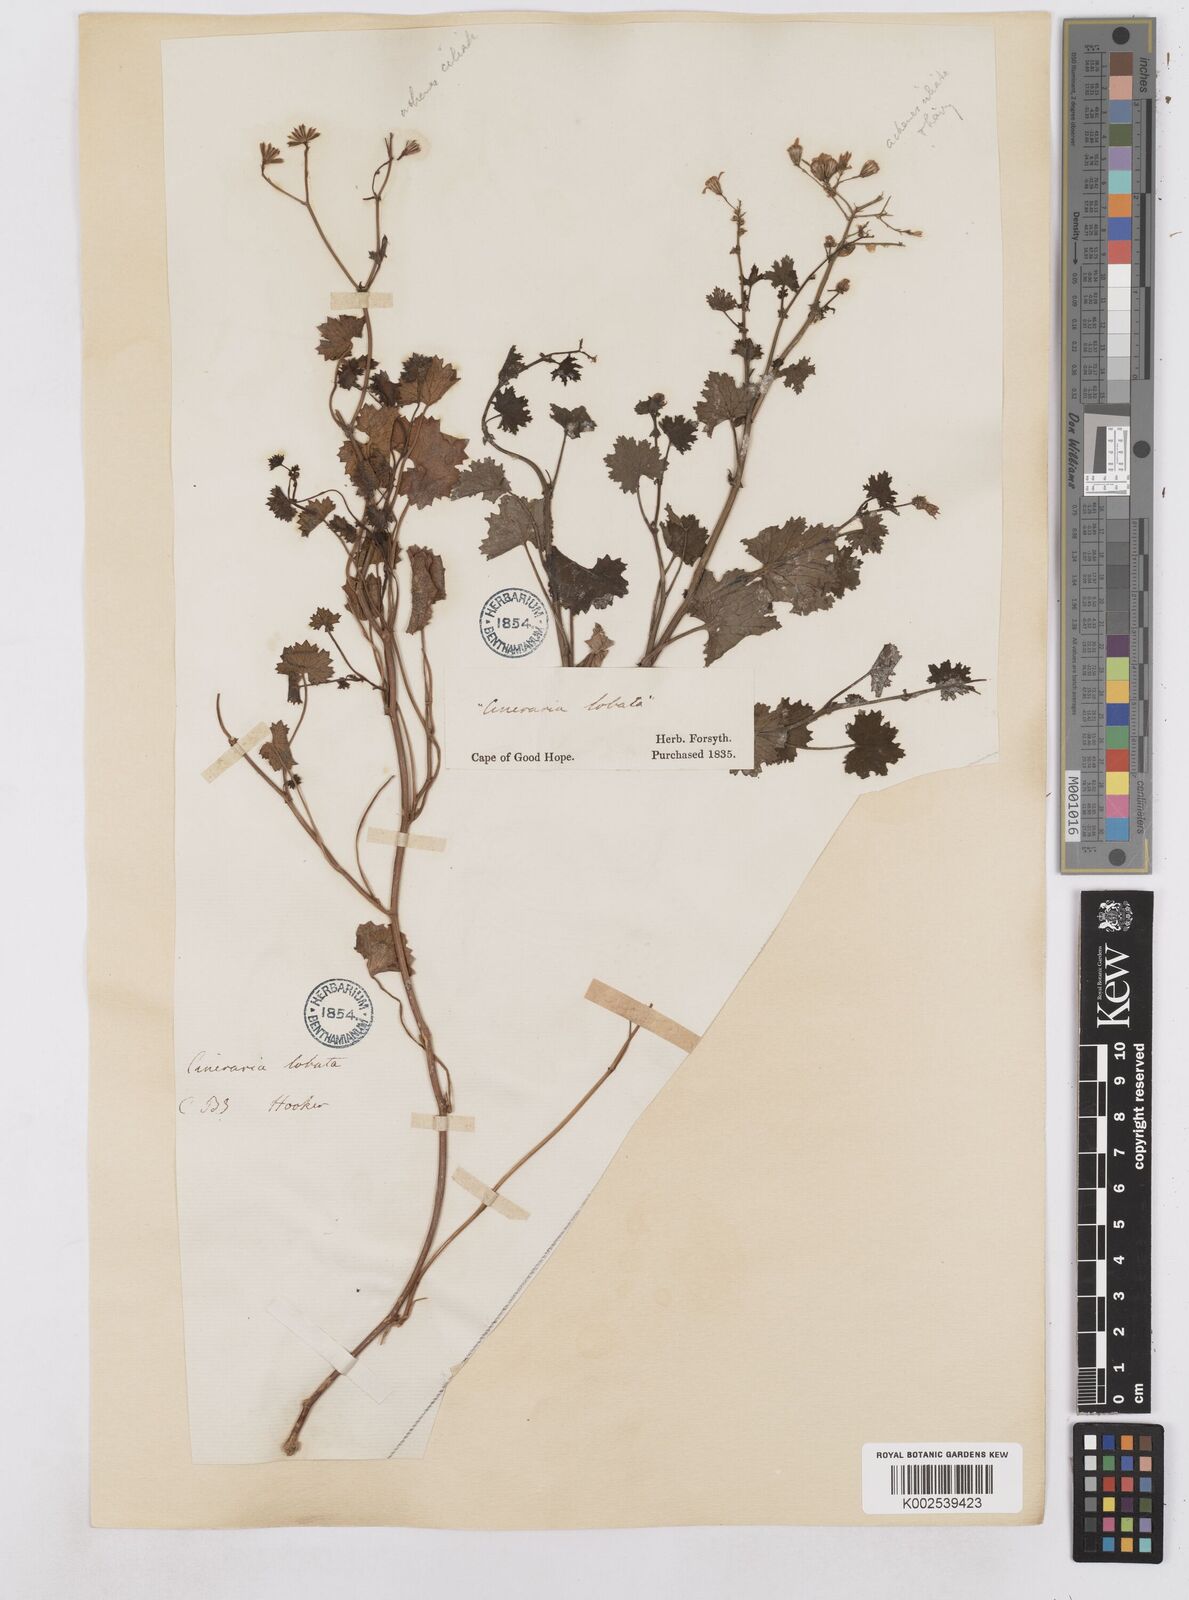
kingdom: Plantae
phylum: Tracheophyta
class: Magnoliopsida
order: Asterales
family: Asteraceae
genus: Cineraria
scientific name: Cineraria
